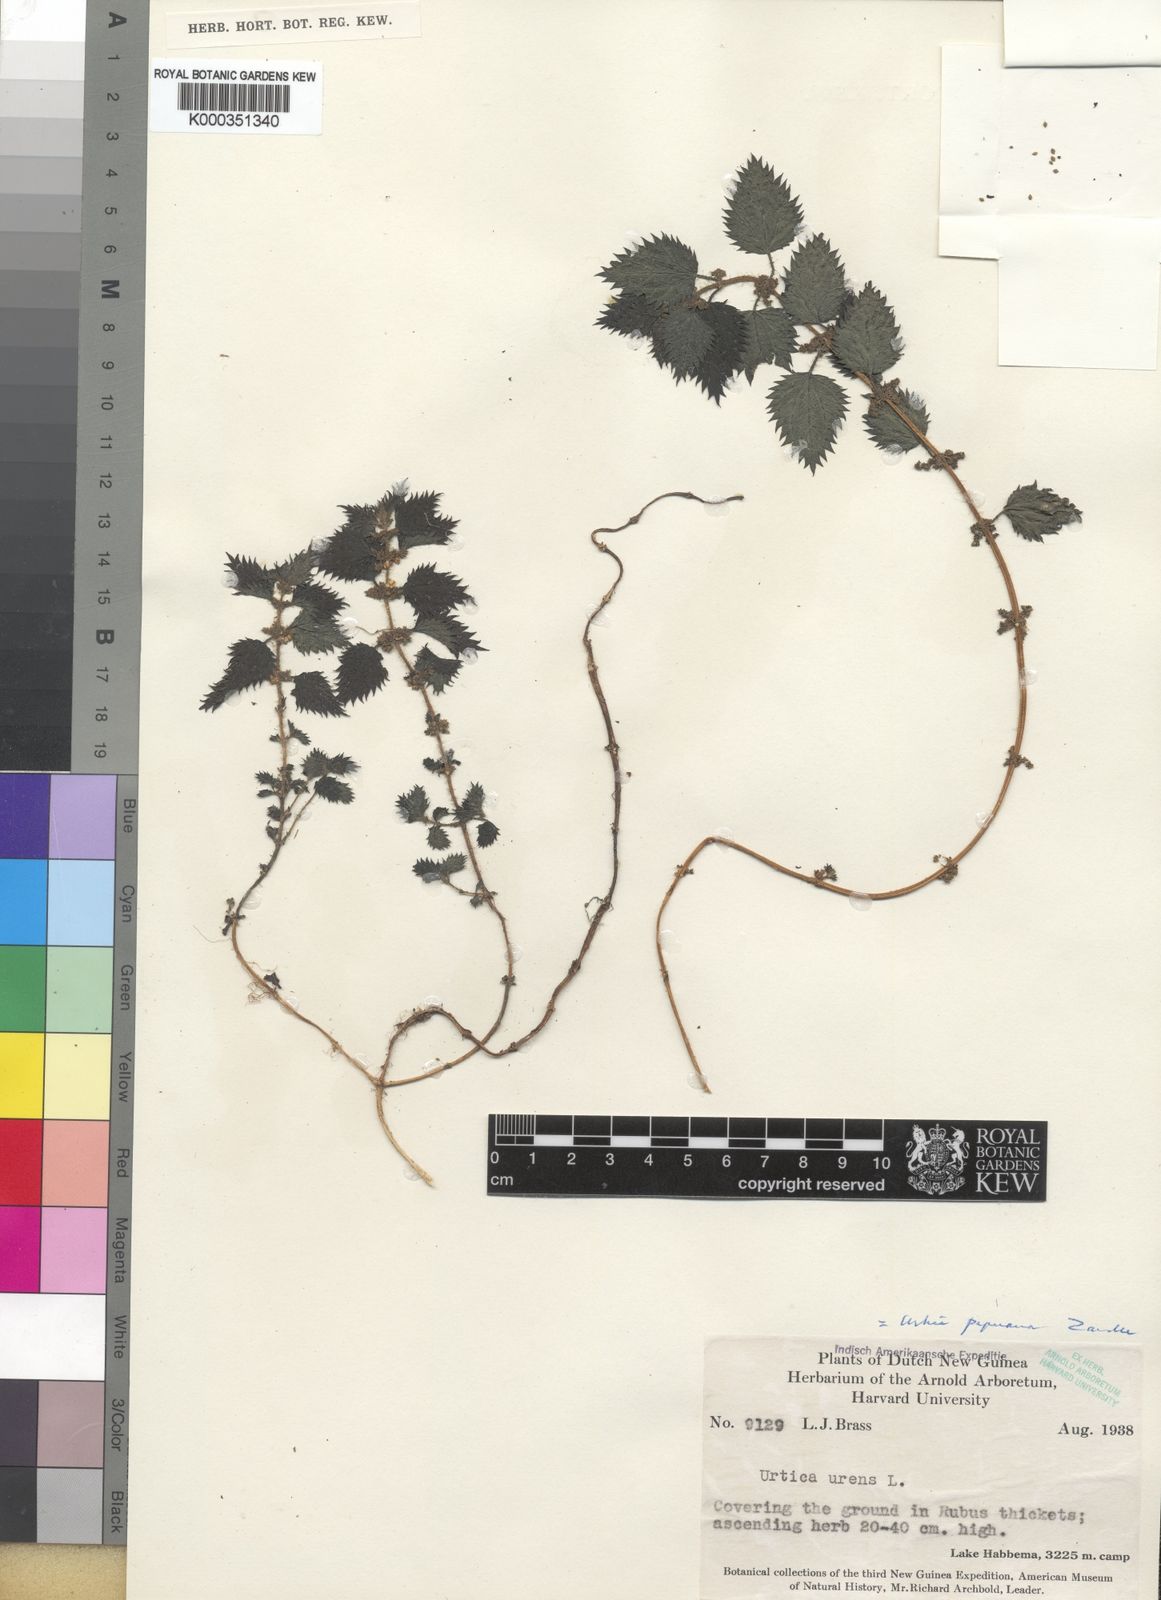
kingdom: Plantae
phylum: Tracheophyta
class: Magnoliopsida
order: Rosales
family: Urticaceae
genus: Urtica
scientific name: Urtica papuana
